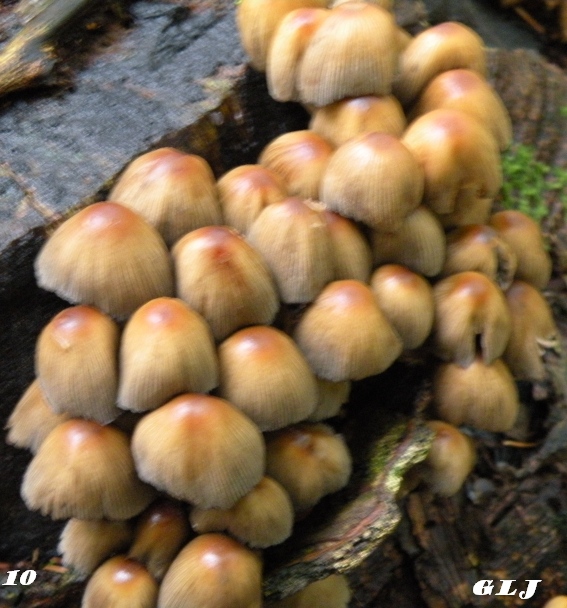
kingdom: Fungi
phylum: Basidiomycota
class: Agaricomycetes
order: Agaricales
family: Psathyrellaceae
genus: Coprinellus
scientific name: Coprinellus micaceus
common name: glimmer-blækhat
